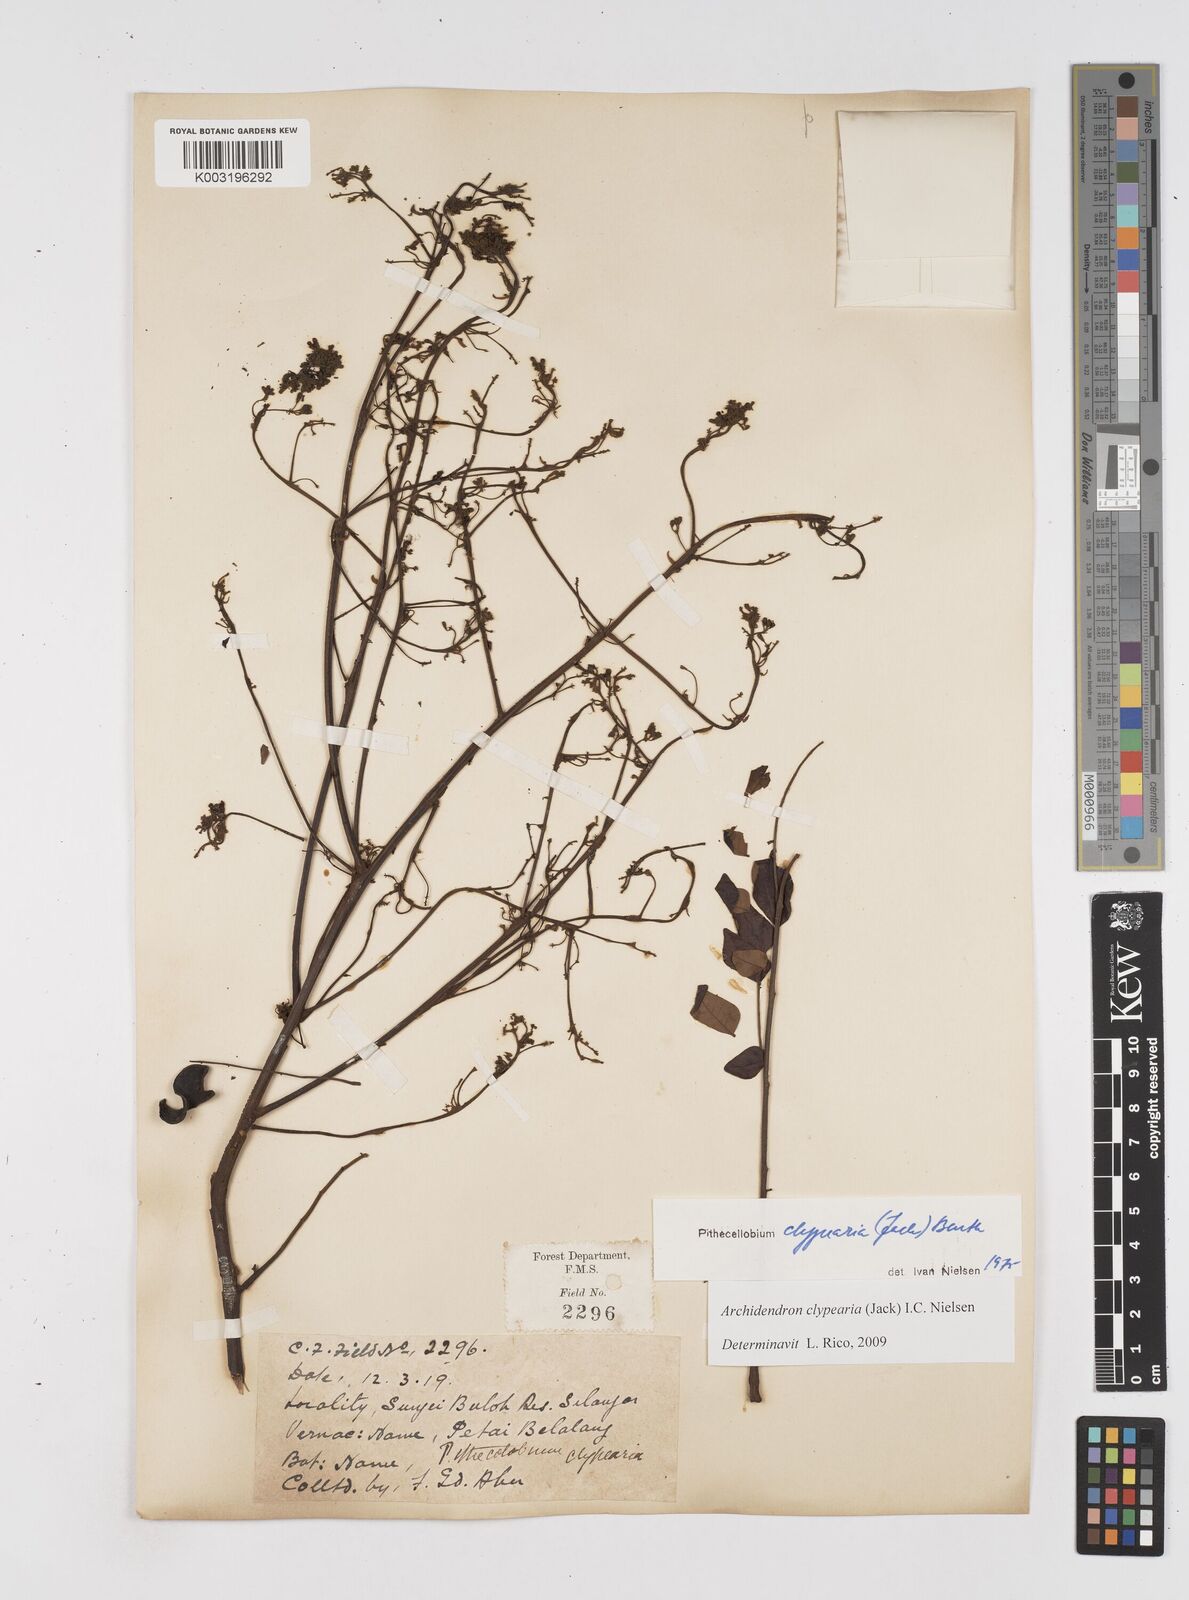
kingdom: Plantae
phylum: Tracheophyta
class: Magnoliopsida
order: Fabales
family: Fabaceae
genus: Archidendron
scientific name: Archidendron clypearia
